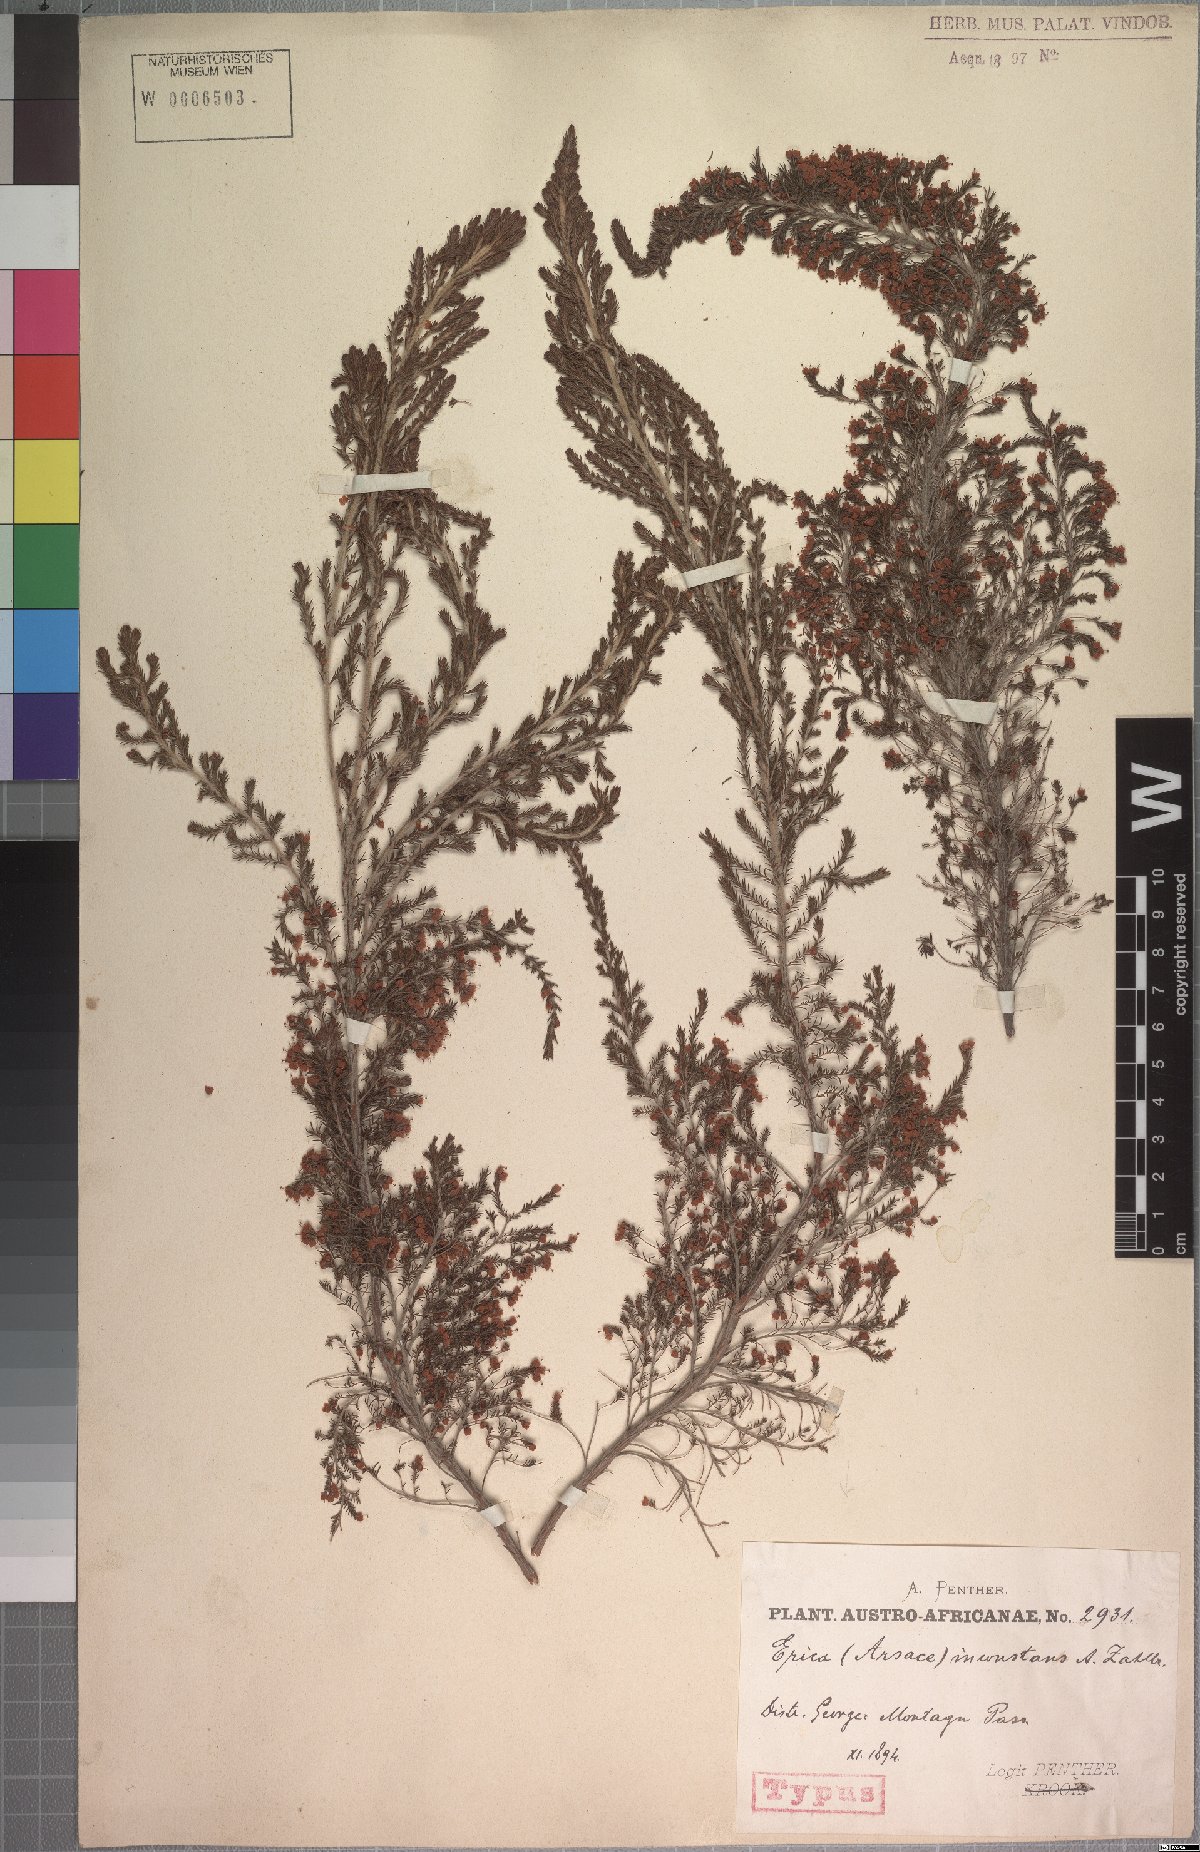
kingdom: Plantae
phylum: Tracheophyta
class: Magnoliopsida
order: Ericales
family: Ericaceae
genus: Erica
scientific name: Erica inconstans
